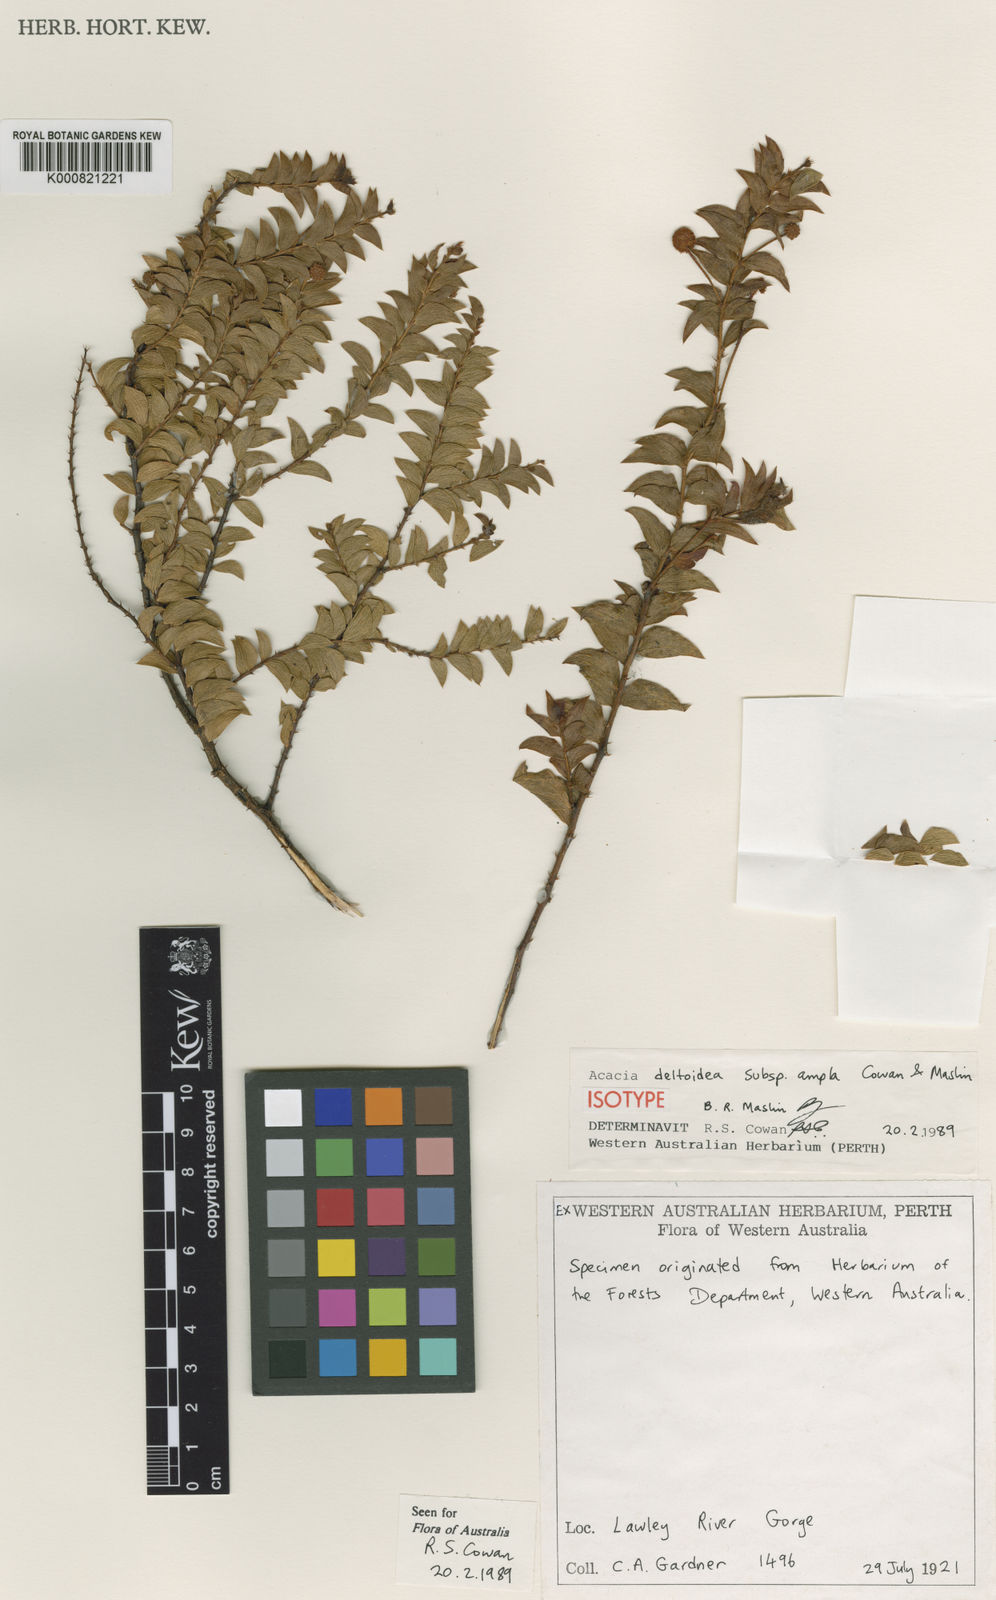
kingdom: Plantae
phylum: Tracheophyta
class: Magnoliopsida
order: Fabales
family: Fabaceae
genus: Acacia
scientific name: Acacia deltoidea
